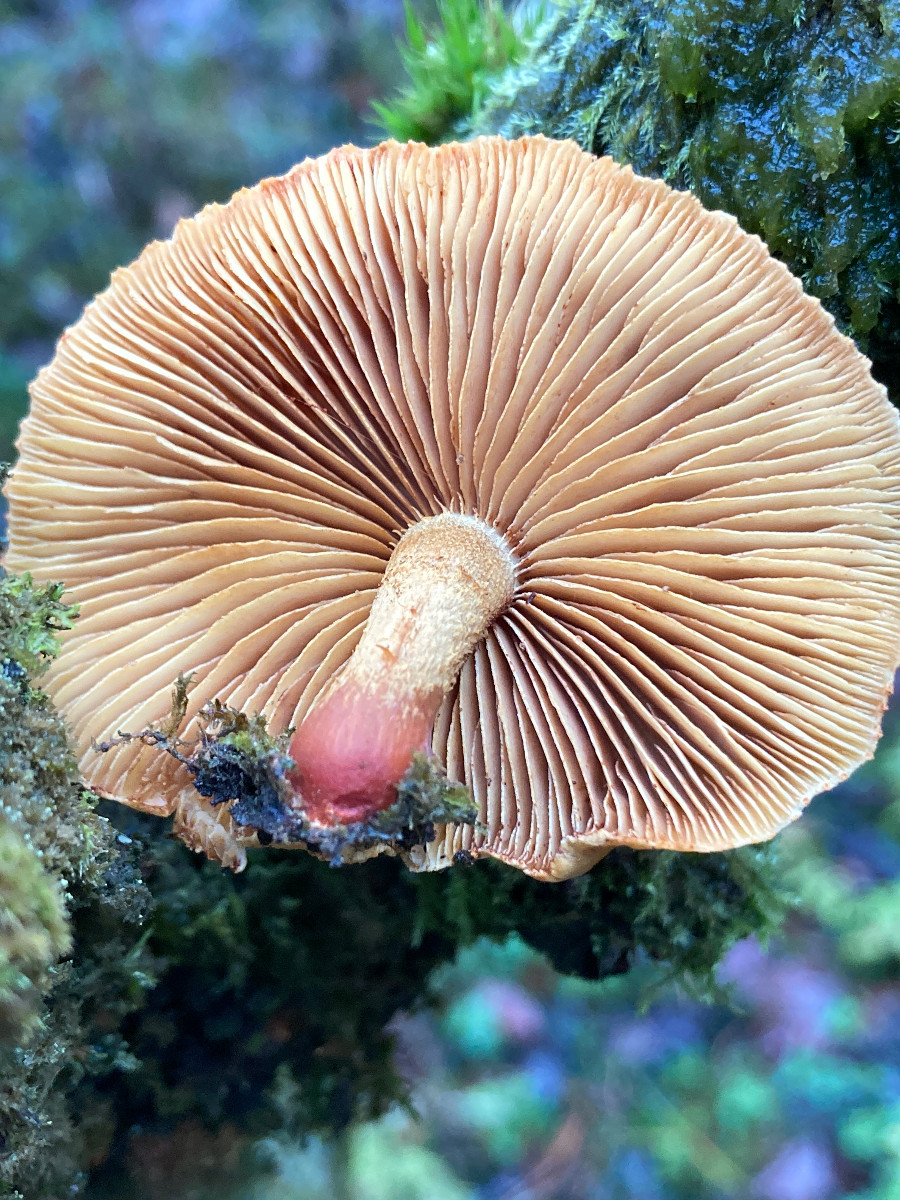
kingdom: Fungi
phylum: Basidiomycota
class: Agaricomycetes
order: Agaricales
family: Strophariaceae
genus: Pholiota
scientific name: Pholiota tuberculosa
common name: finskællet skælhat
